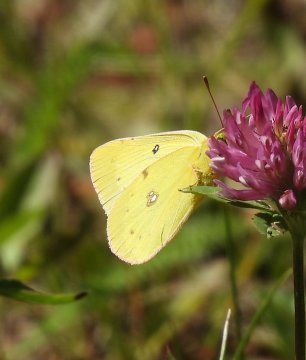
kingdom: Animalia
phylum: Arthropoda
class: Insecta
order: Lepidoptera
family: Pieridae
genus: Colias
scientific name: Colias philodice
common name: Clouded Sulphur
